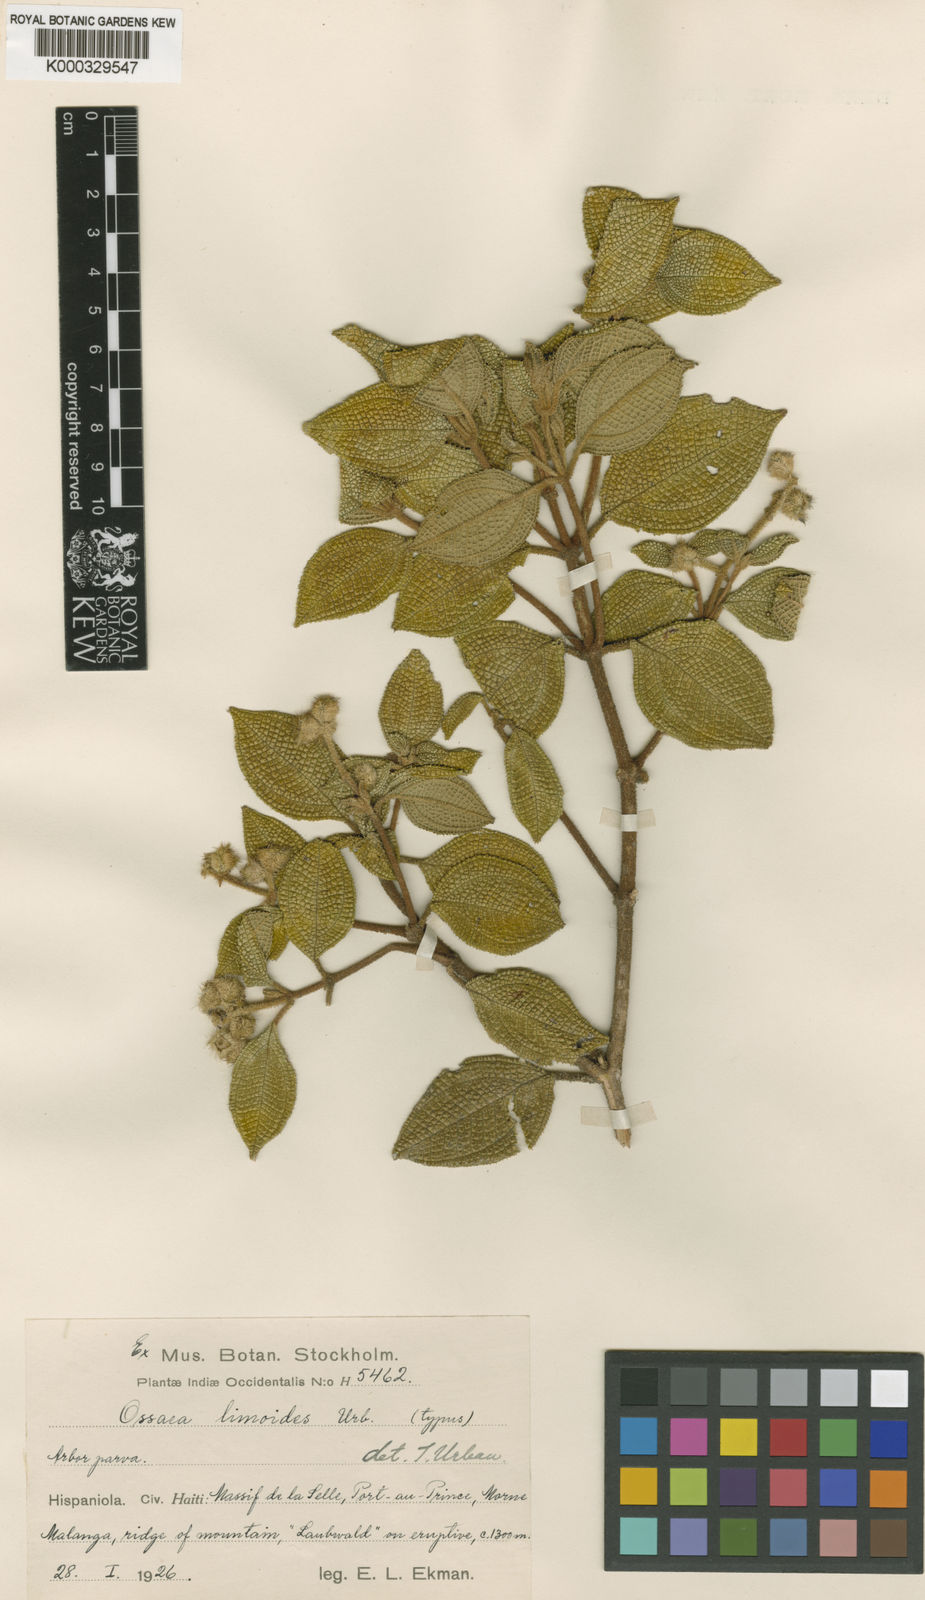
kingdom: Plantae
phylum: Tracheophyta
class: Magnoliopsida
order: Myrtales
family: Melastomataceae
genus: Miconia
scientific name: Miconia limoides
